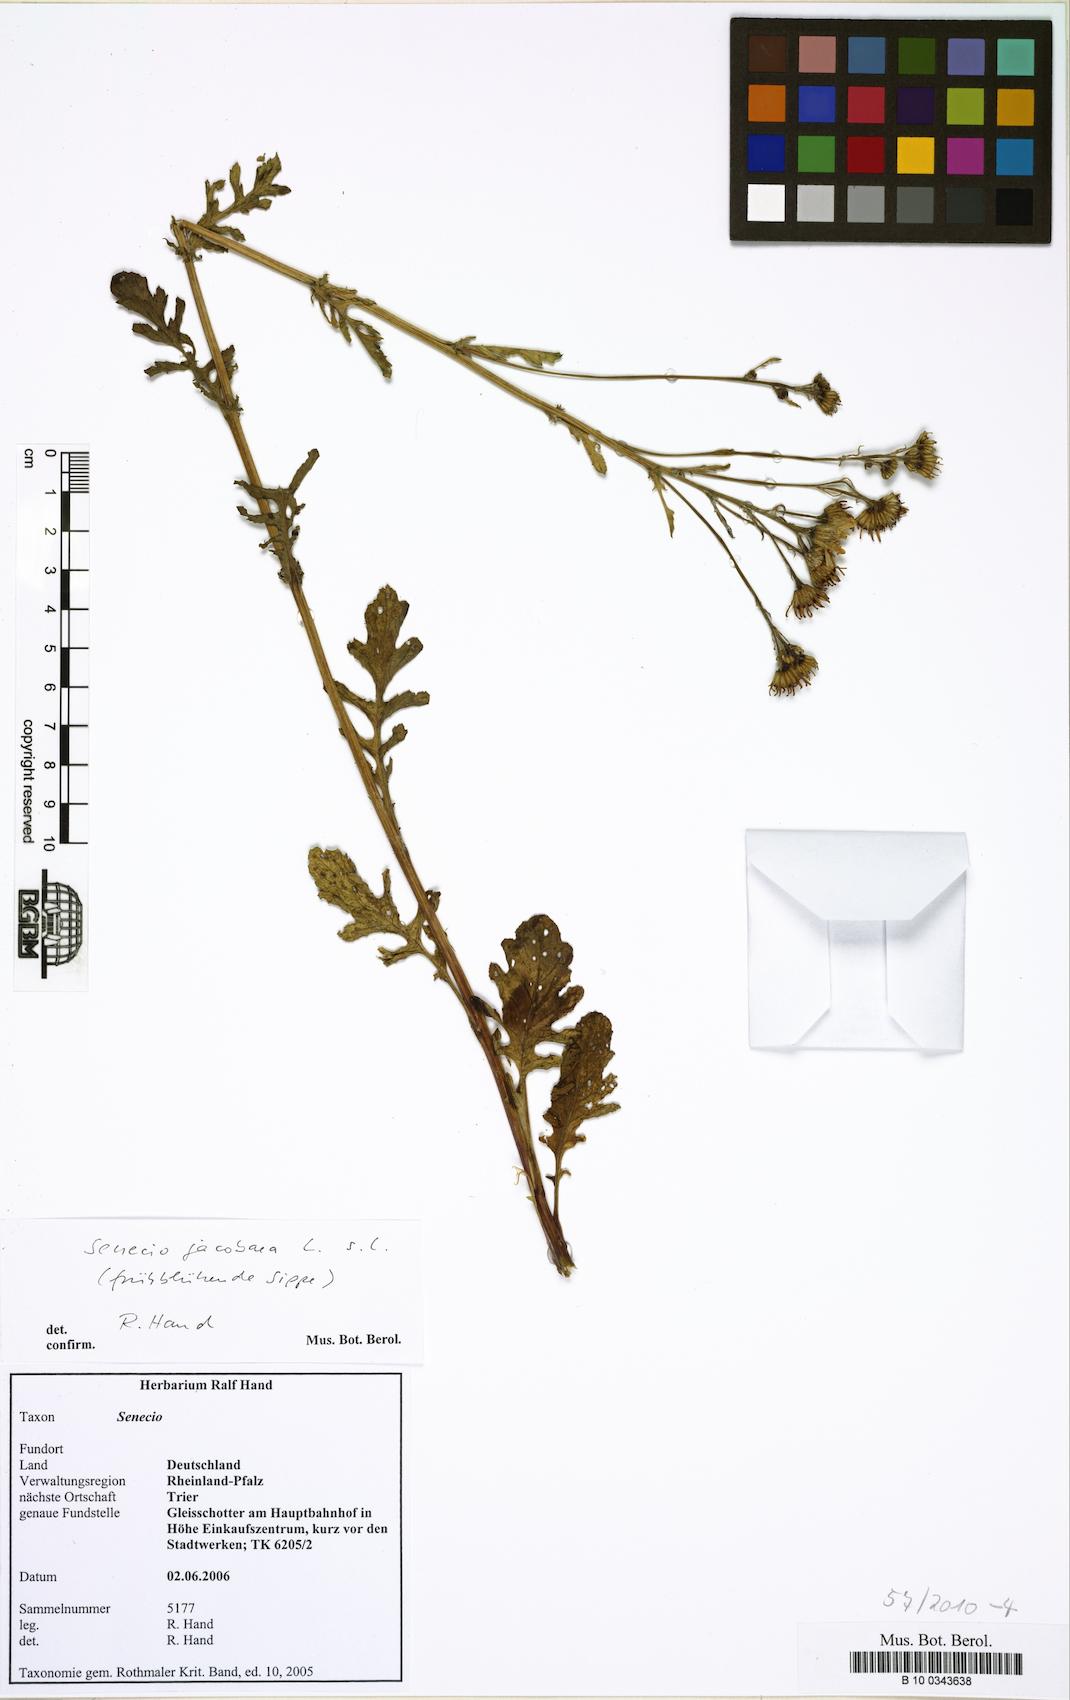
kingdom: Plantae
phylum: Tracheophyta
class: Magnoliopsida
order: Asterales
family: Asteraceae
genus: Jacobaea
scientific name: Jacobaea vulgaris
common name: Stinking willie
